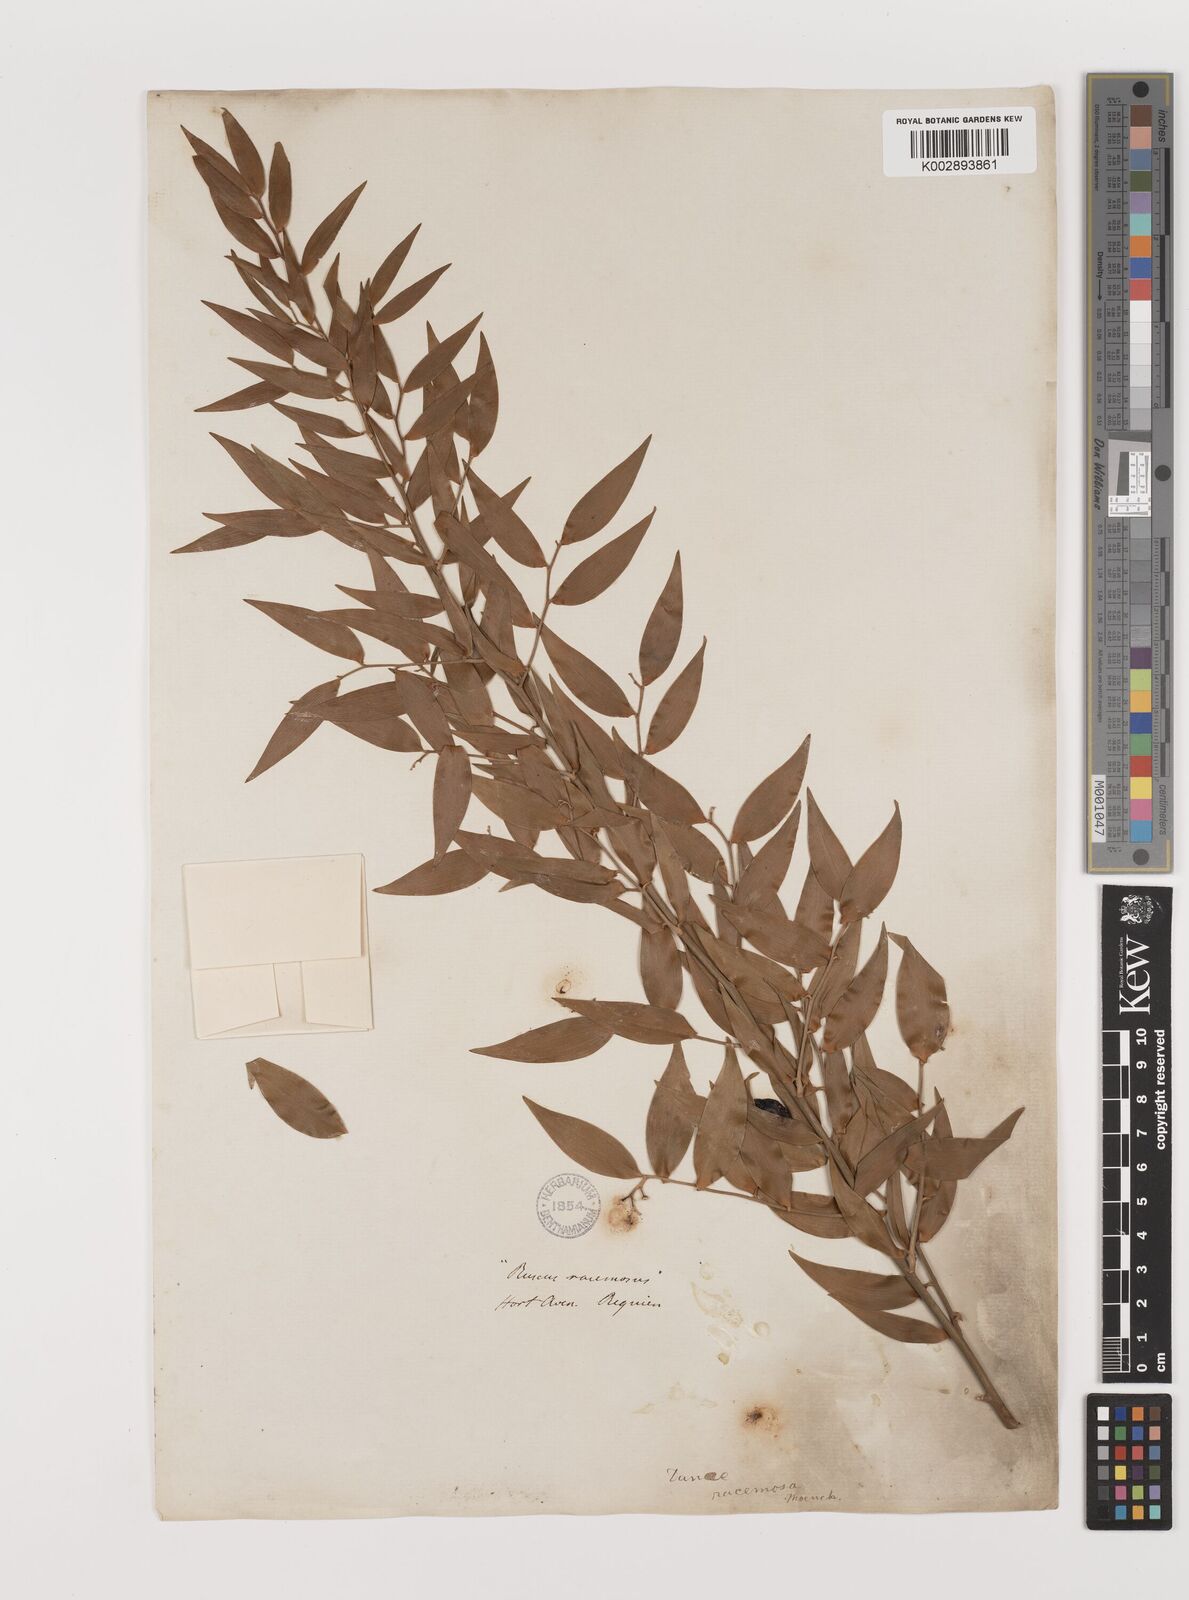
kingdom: Plantae
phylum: Tracheophyta
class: Liliopsida
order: Asparagales
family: Asparagaceae
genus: Danae
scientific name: Danae racemosa
